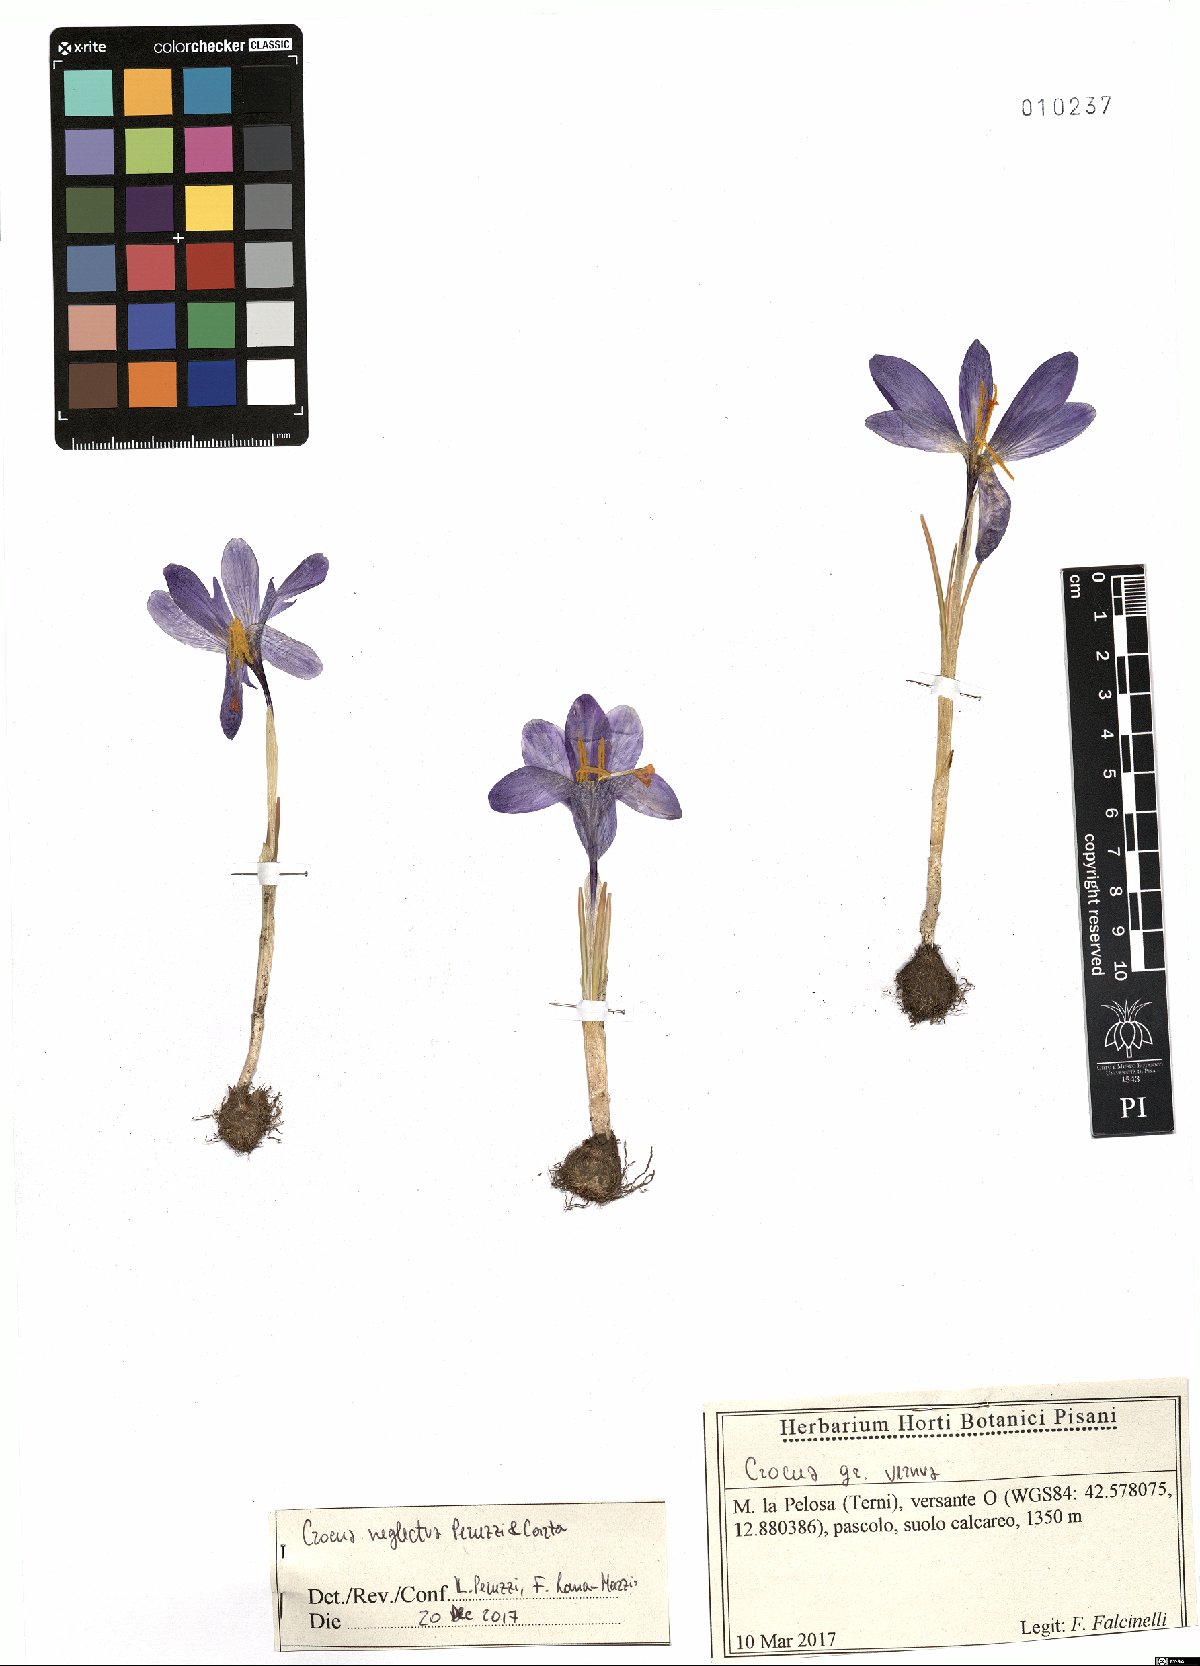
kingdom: Plantae
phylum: Tracheophyta
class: Liliopsida
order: Asparagales
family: Iridaceae
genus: Crocus
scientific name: Crocus neglectus
